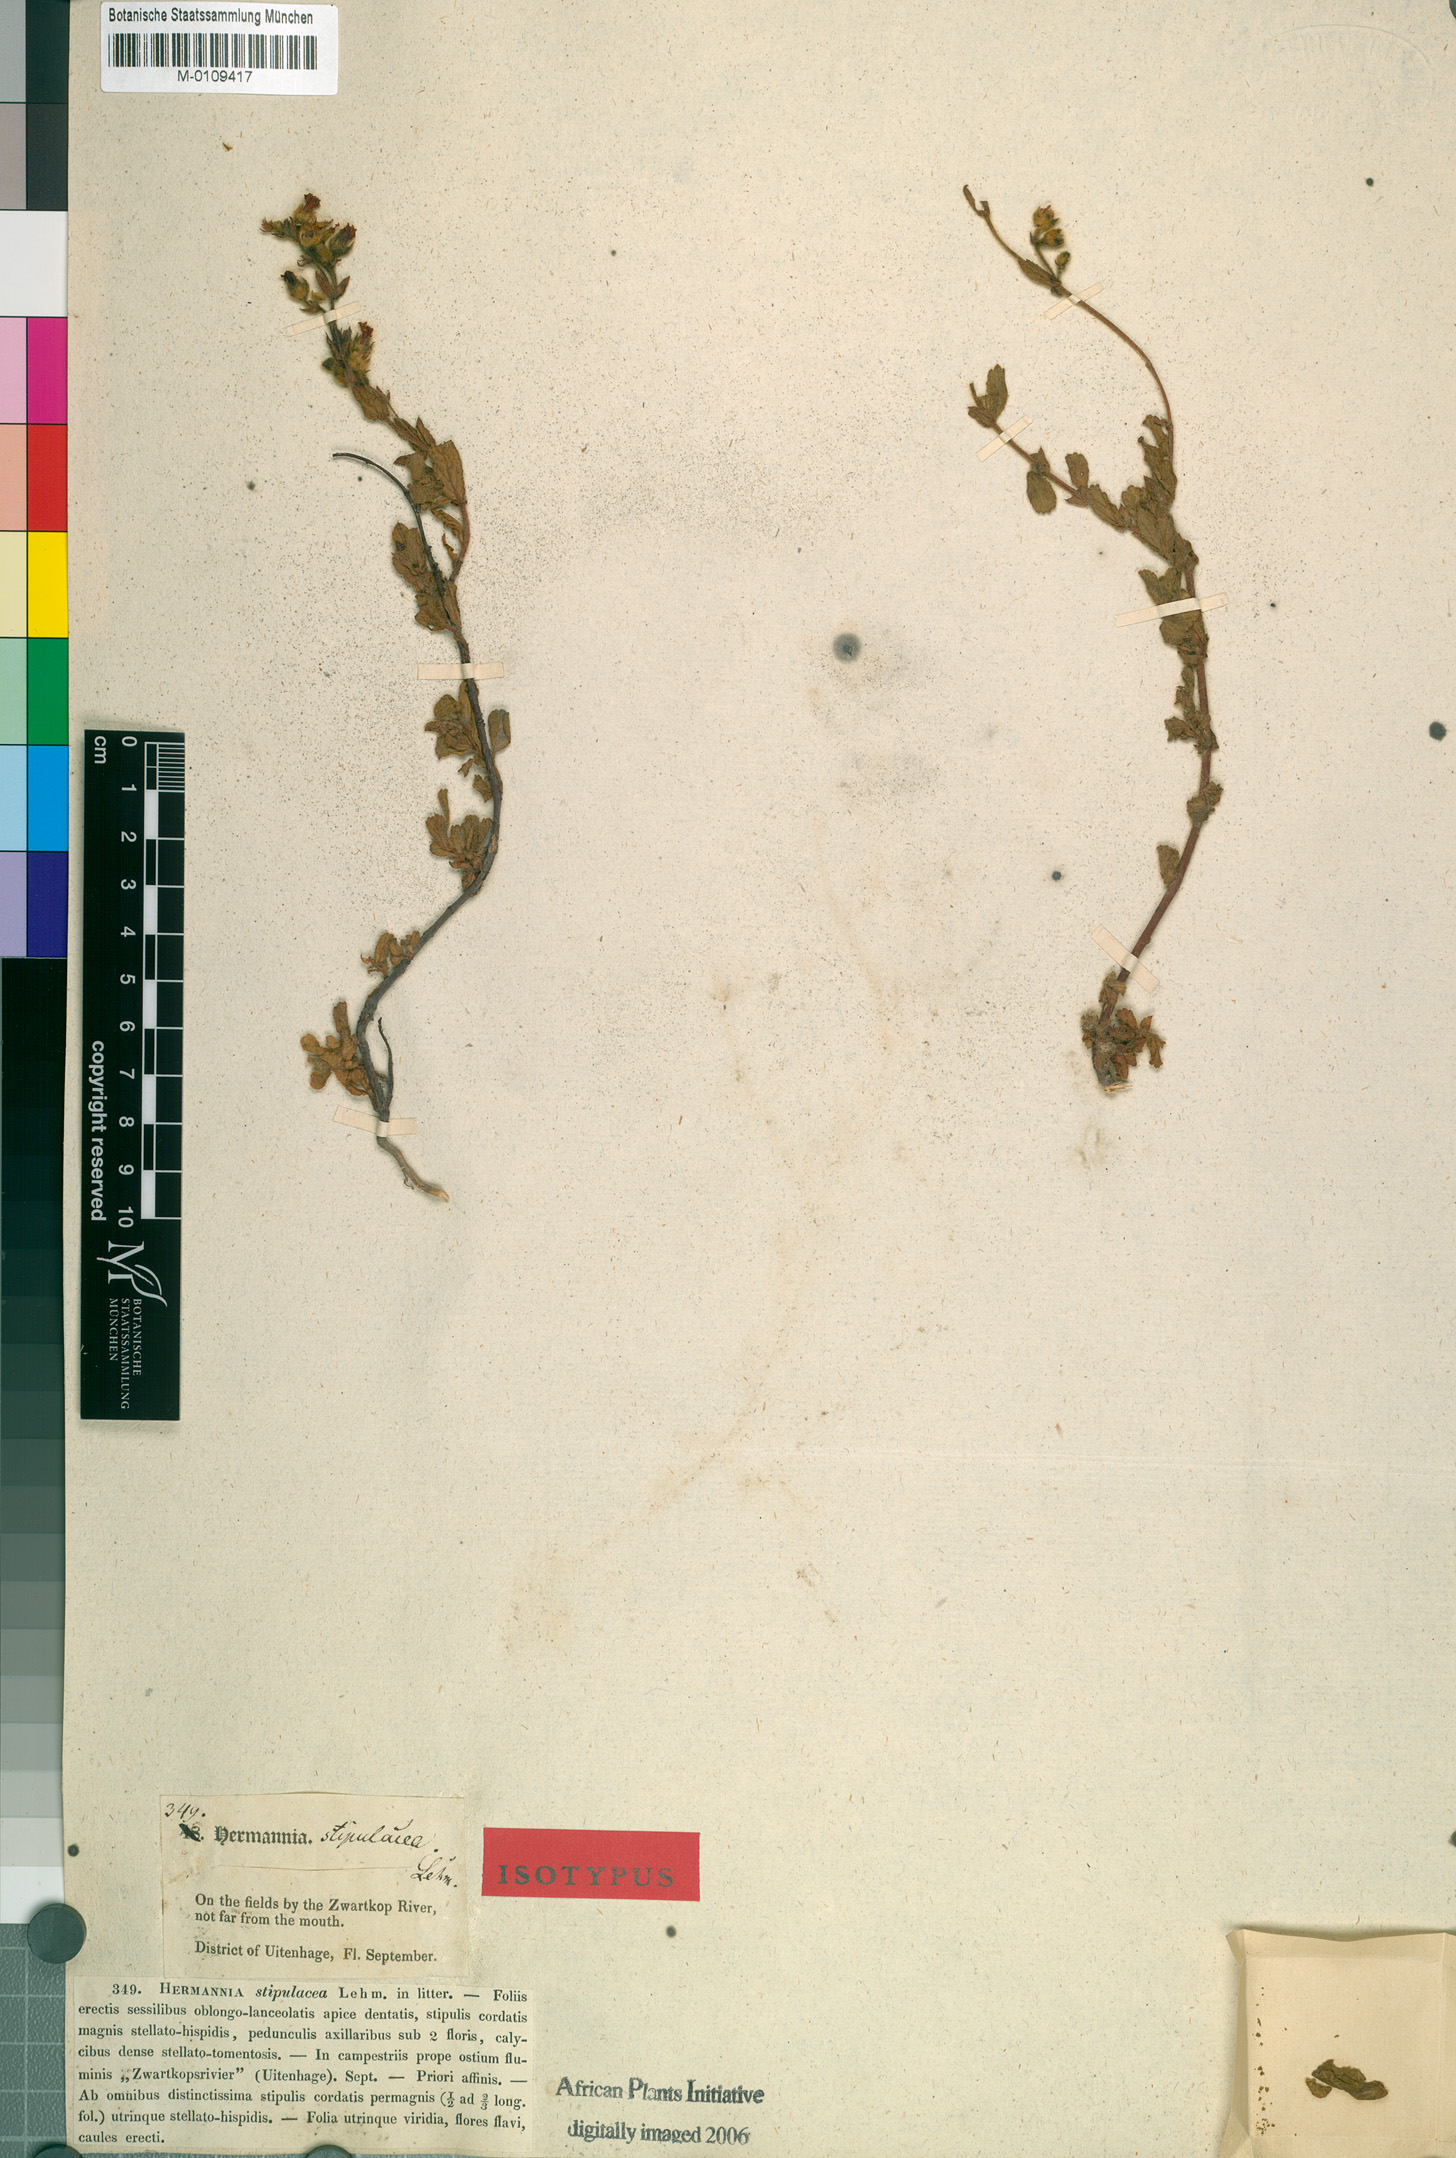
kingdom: Plantae
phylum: Tracheophyta
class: Magnoliopsida
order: Malvales
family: Malvaceae
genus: Hermannia
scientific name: Hermannia stipulacea
